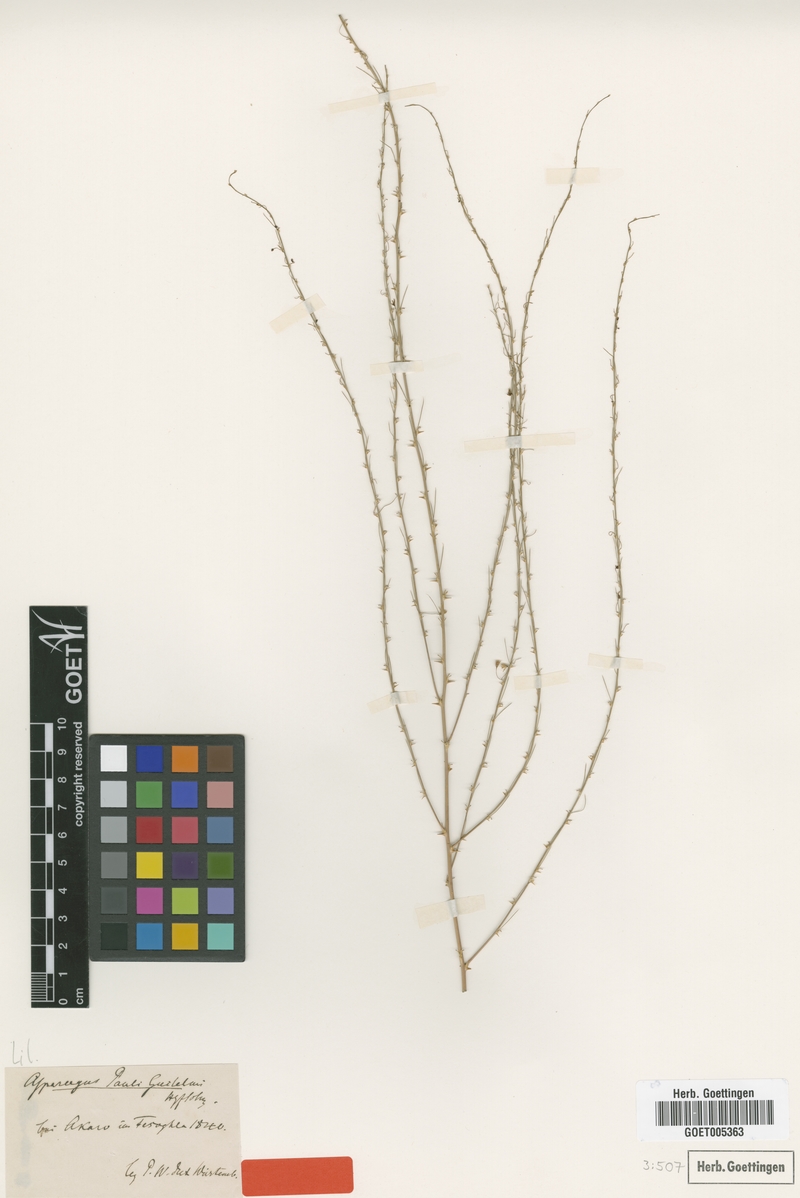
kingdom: Plantae
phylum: Tracheophyta
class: Liliopsida
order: Asparagales
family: Asparagaceae
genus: Asparagus
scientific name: Asparagus flagellaris
